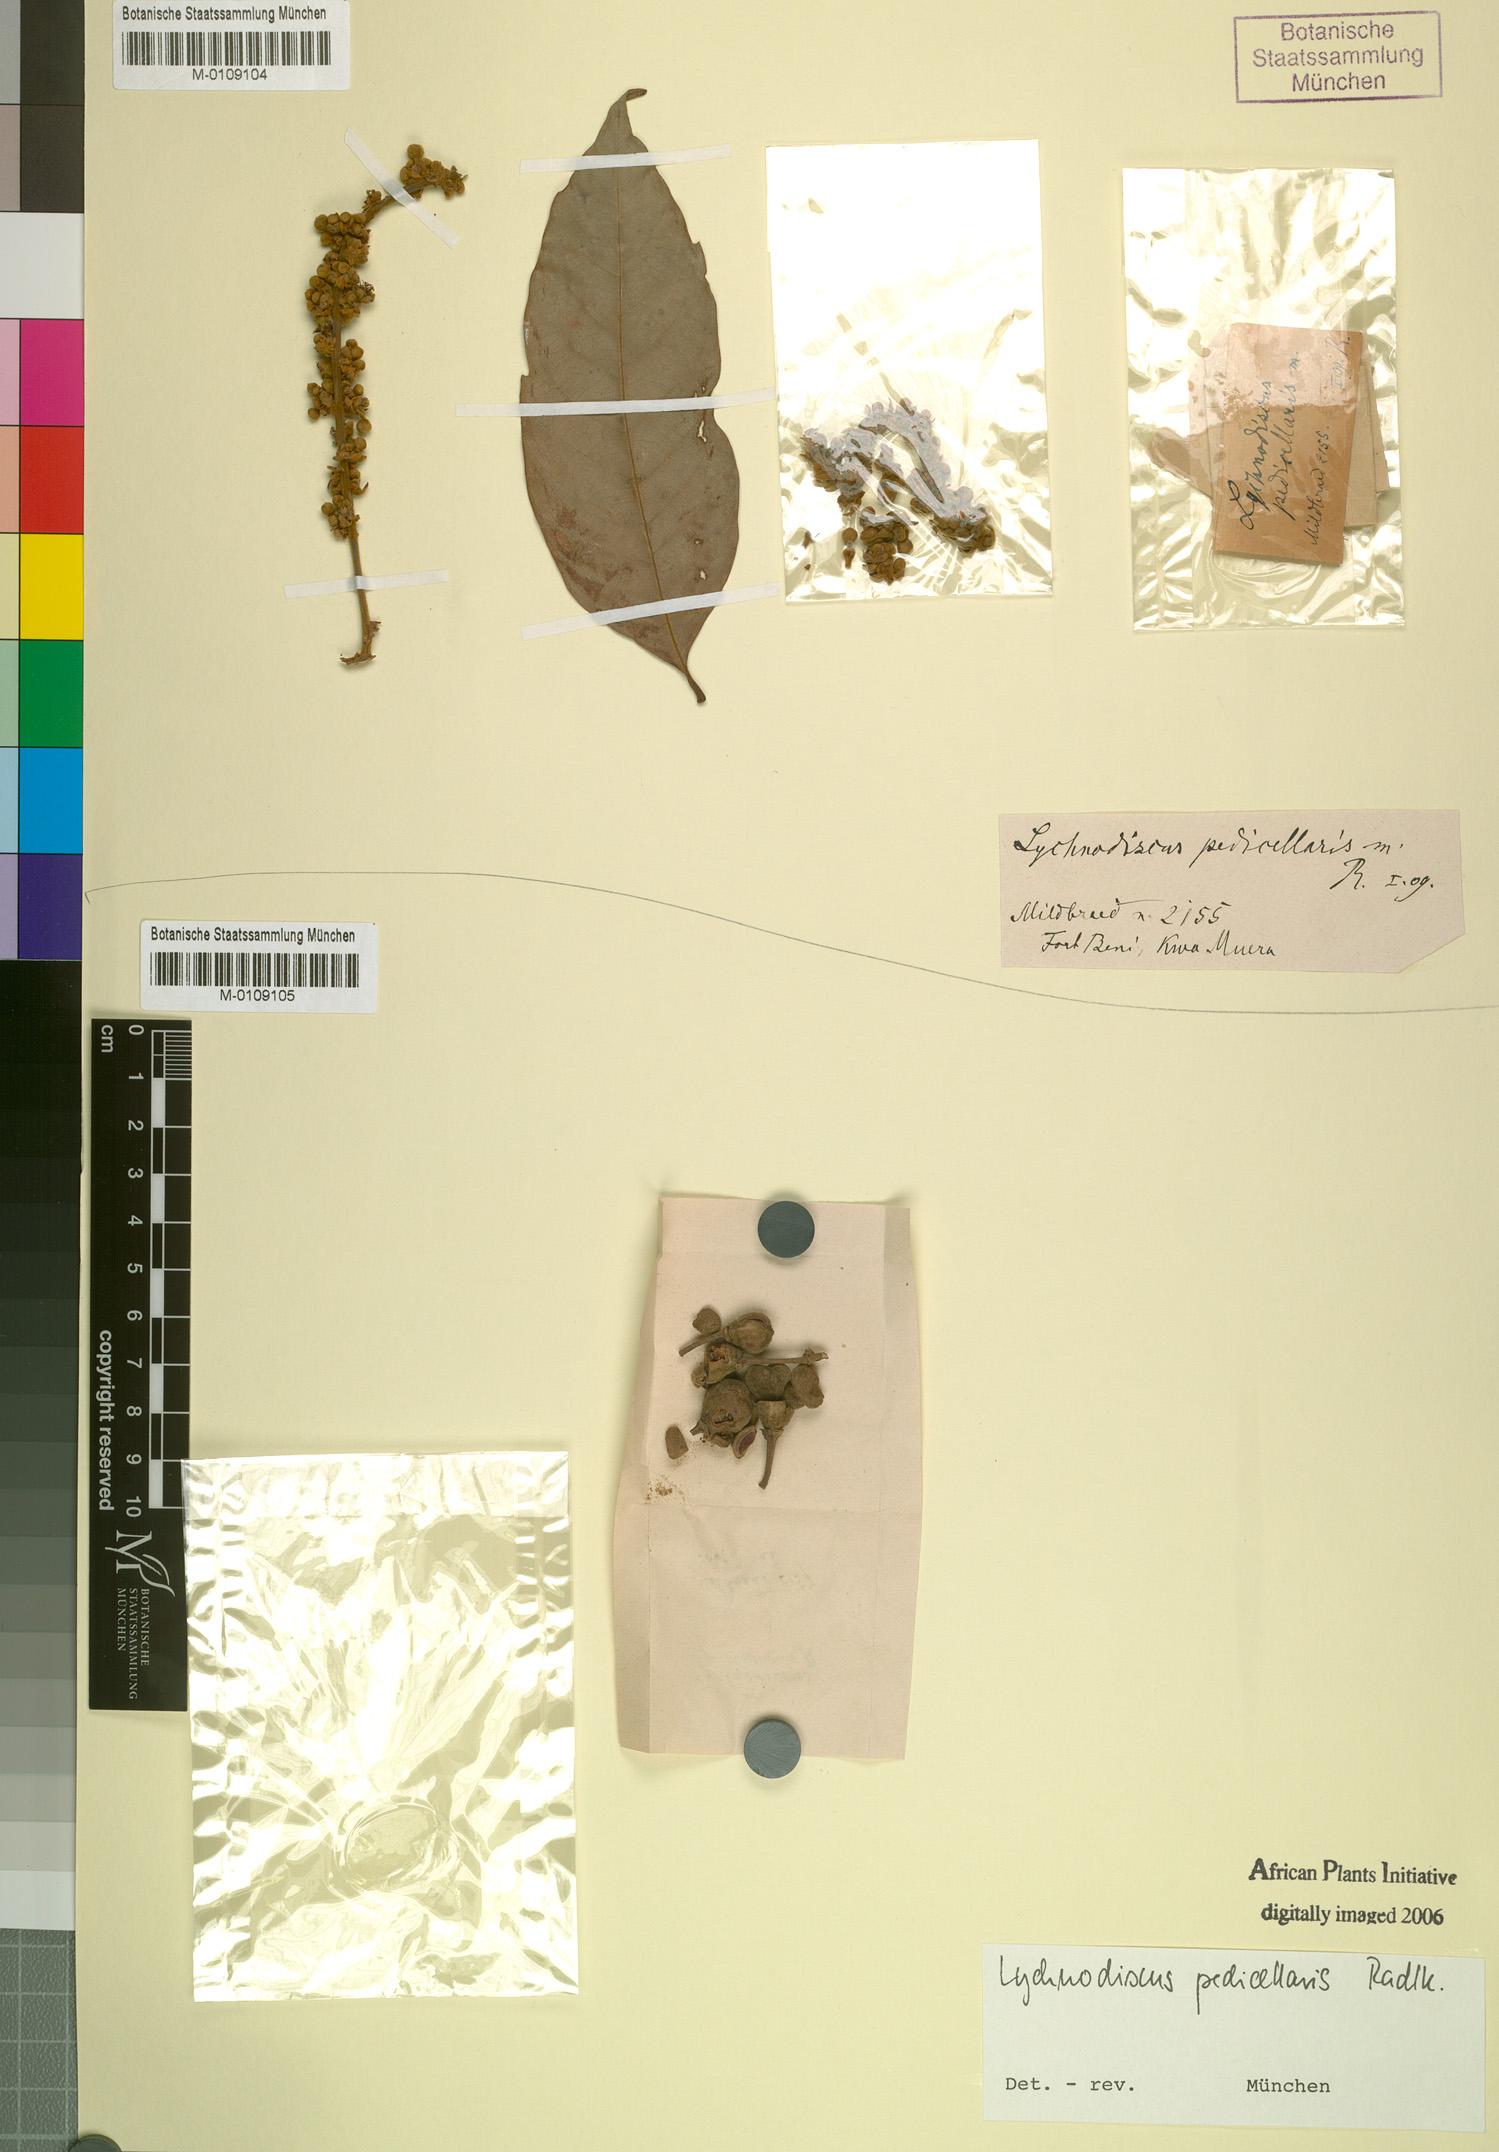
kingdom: Plantae
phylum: Tracheophyta
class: Magnoliopsida
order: Sapindales
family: Sapindaceae
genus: Lychnodiscus
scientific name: Lychnodiscus cerospermus
